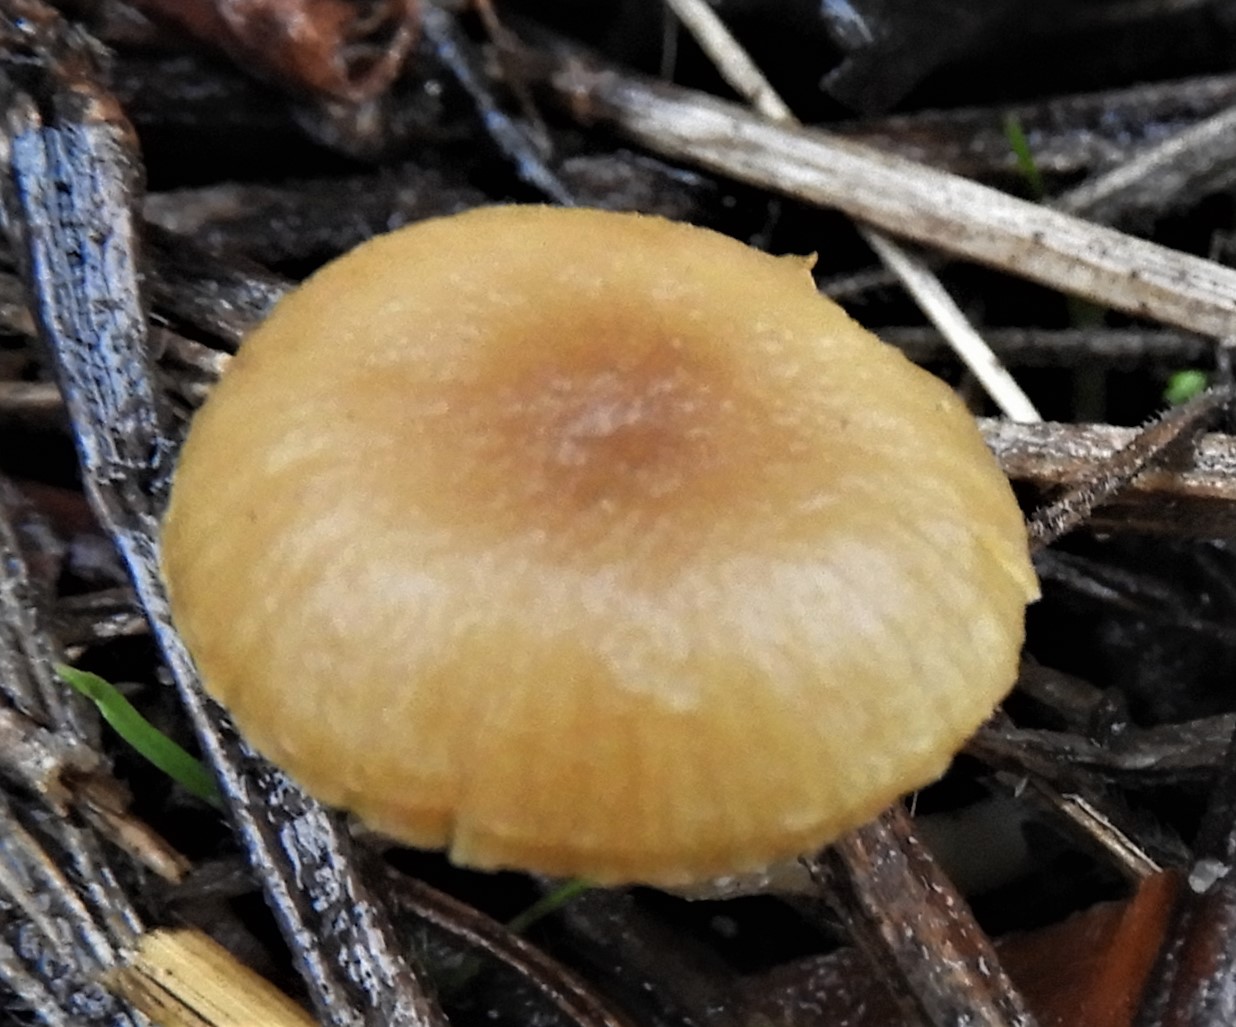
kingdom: Fungi
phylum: Basidiomycota
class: Agaricomycetes
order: Agaricales
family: Tubariaceae
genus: Tubaria
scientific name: Tubaria dispersa
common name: tjørne-fnughat
